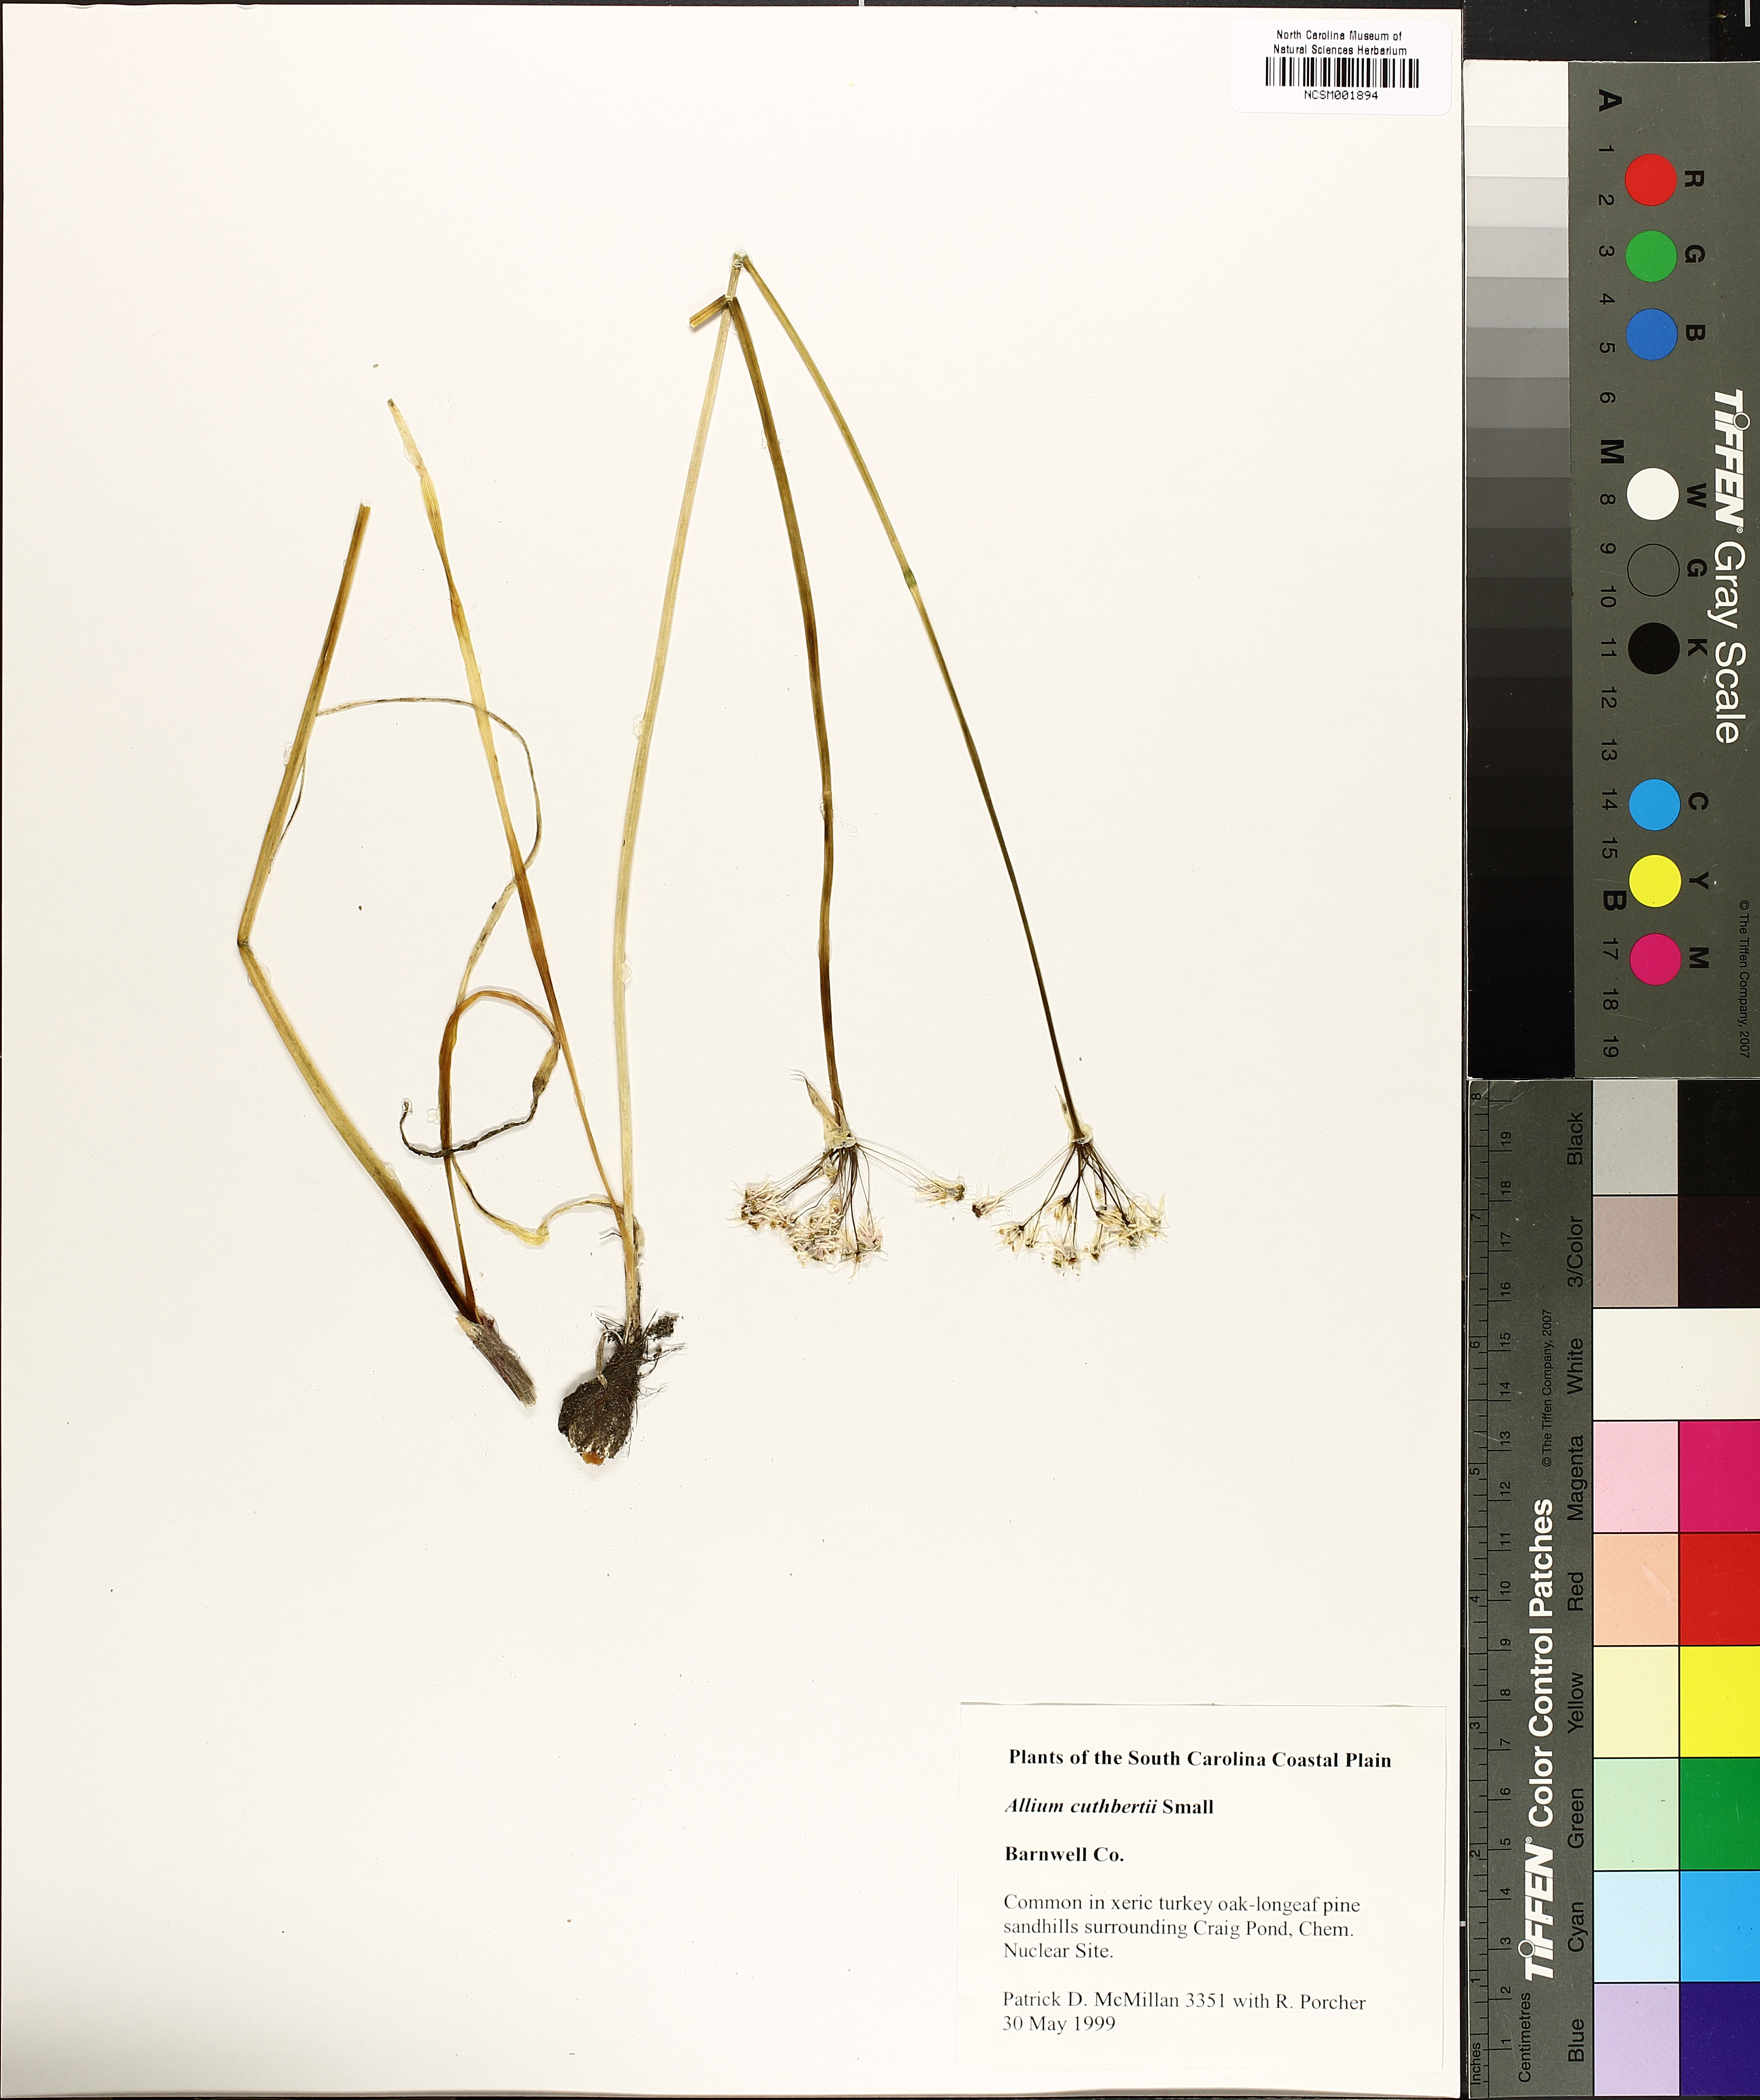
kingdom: Plantae
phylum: Tracheophyta
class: Liliopsida
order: Asparagales
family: Amaryllidaceae
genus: Allium
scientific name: Allium cuthbertii
